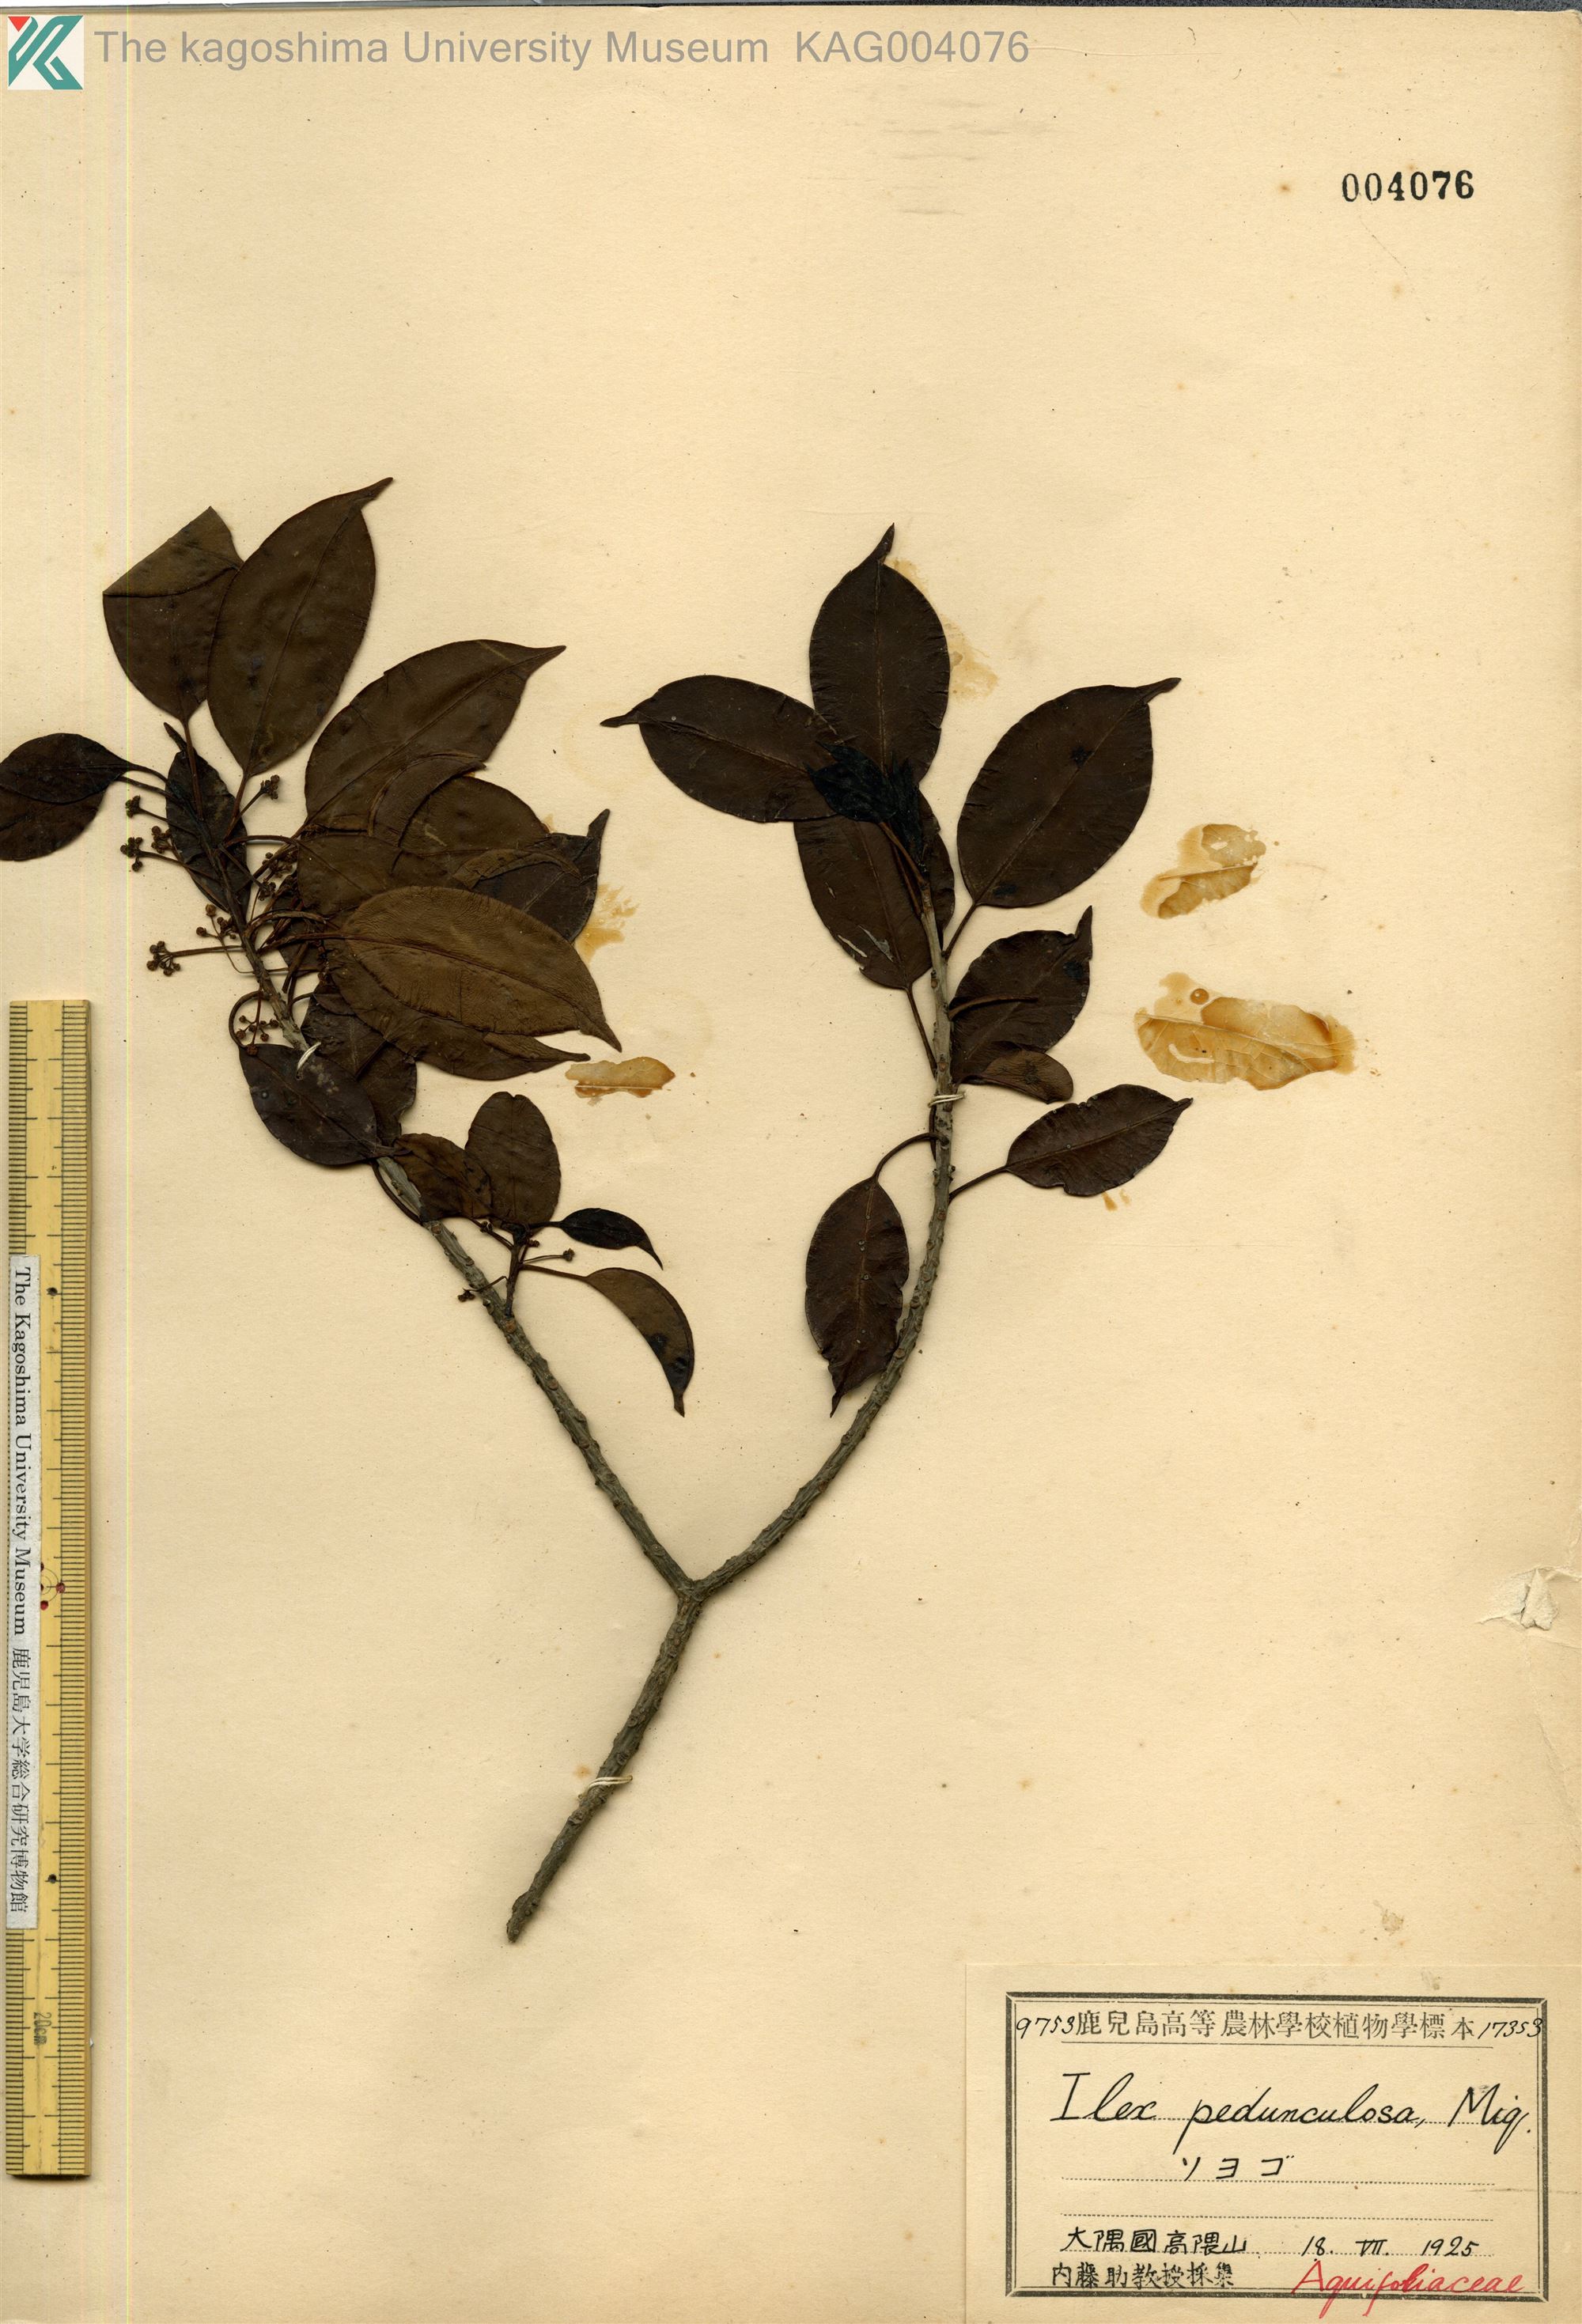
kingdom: Plantae
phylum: Tracheophyta
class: Magnoliopsida
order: Aquifoliales
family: Aquifoliaceae
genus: Ilex
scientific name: Ilex pedunculosa
